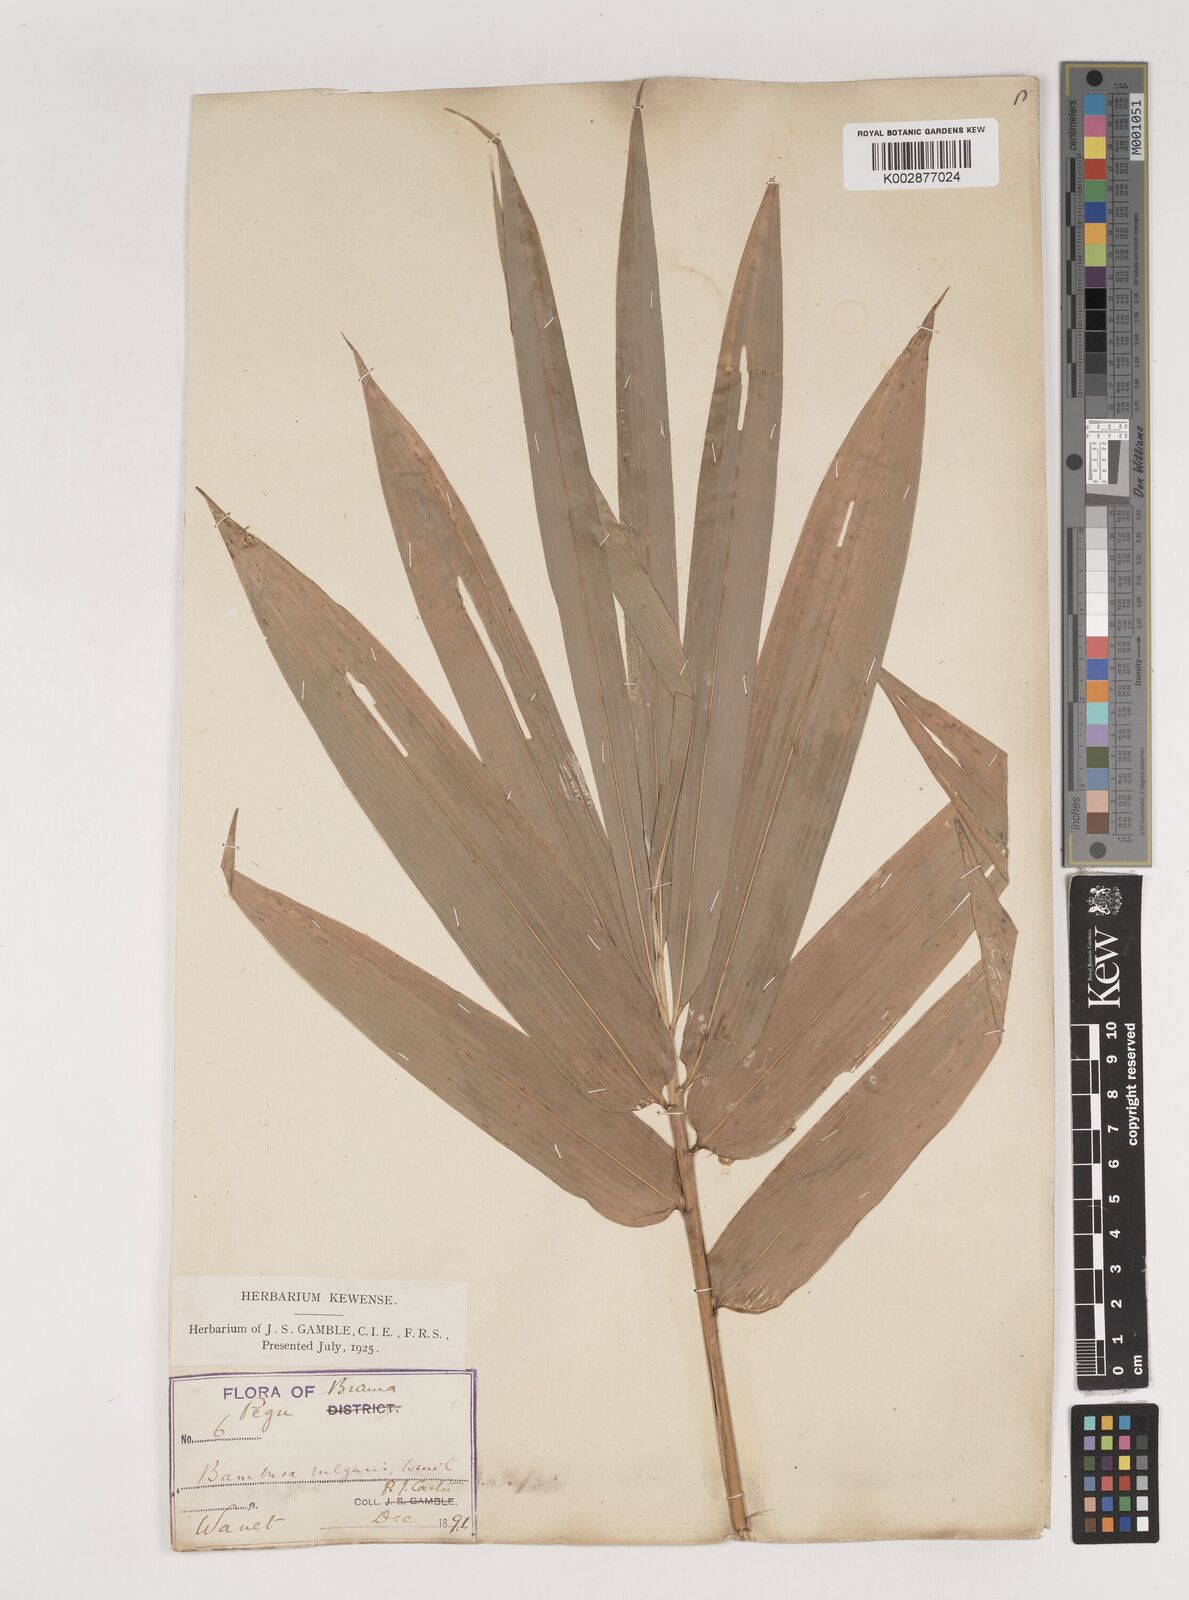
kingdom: Plantae
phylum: Tracheophyta
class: Liliopsida
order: Poales
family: Poaceae
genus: Bambusa
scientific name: Bambusa vulgaris
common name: Common bamboo
